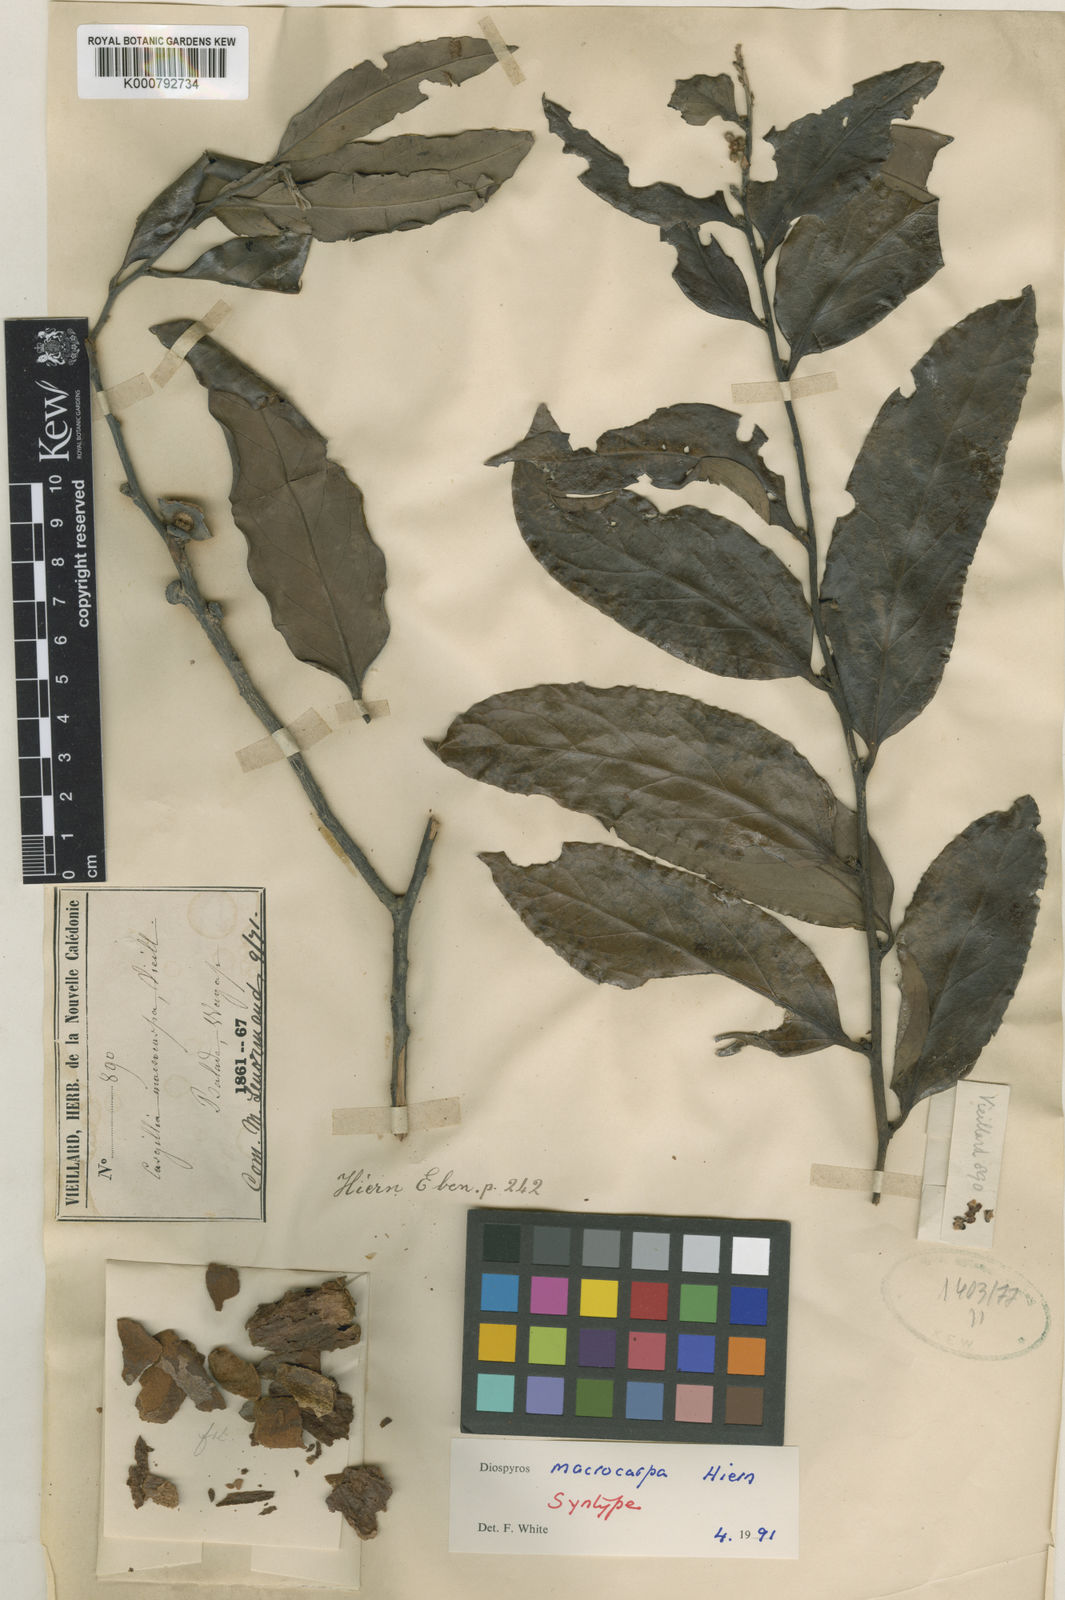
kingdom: Plantae
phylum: Tracheophyta
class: Magnoliopsida
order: Ericales
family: Ebenaceae
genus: Diospyros
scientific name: Diospyros macrocarpa
